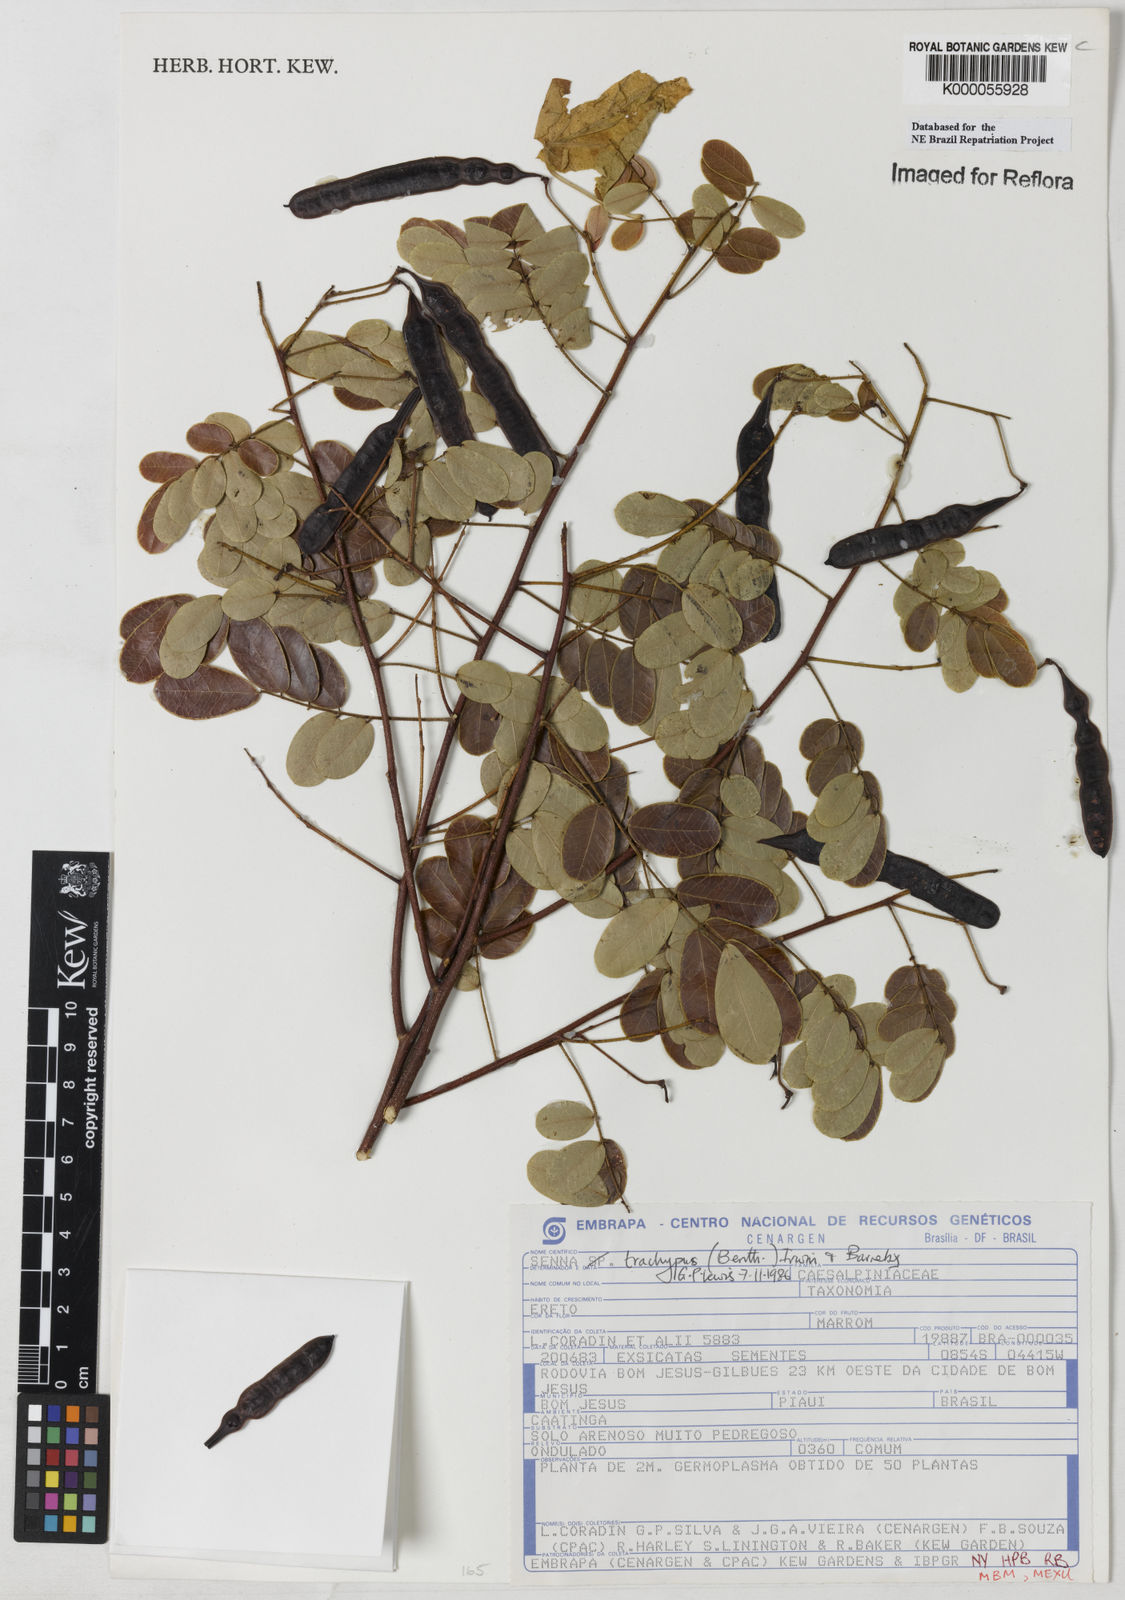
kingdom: Plantae
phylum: Tracheophyta
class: Magnoliopsida
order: Fabales
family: Fabaceae
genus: Senna
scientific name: Senna trachypus
